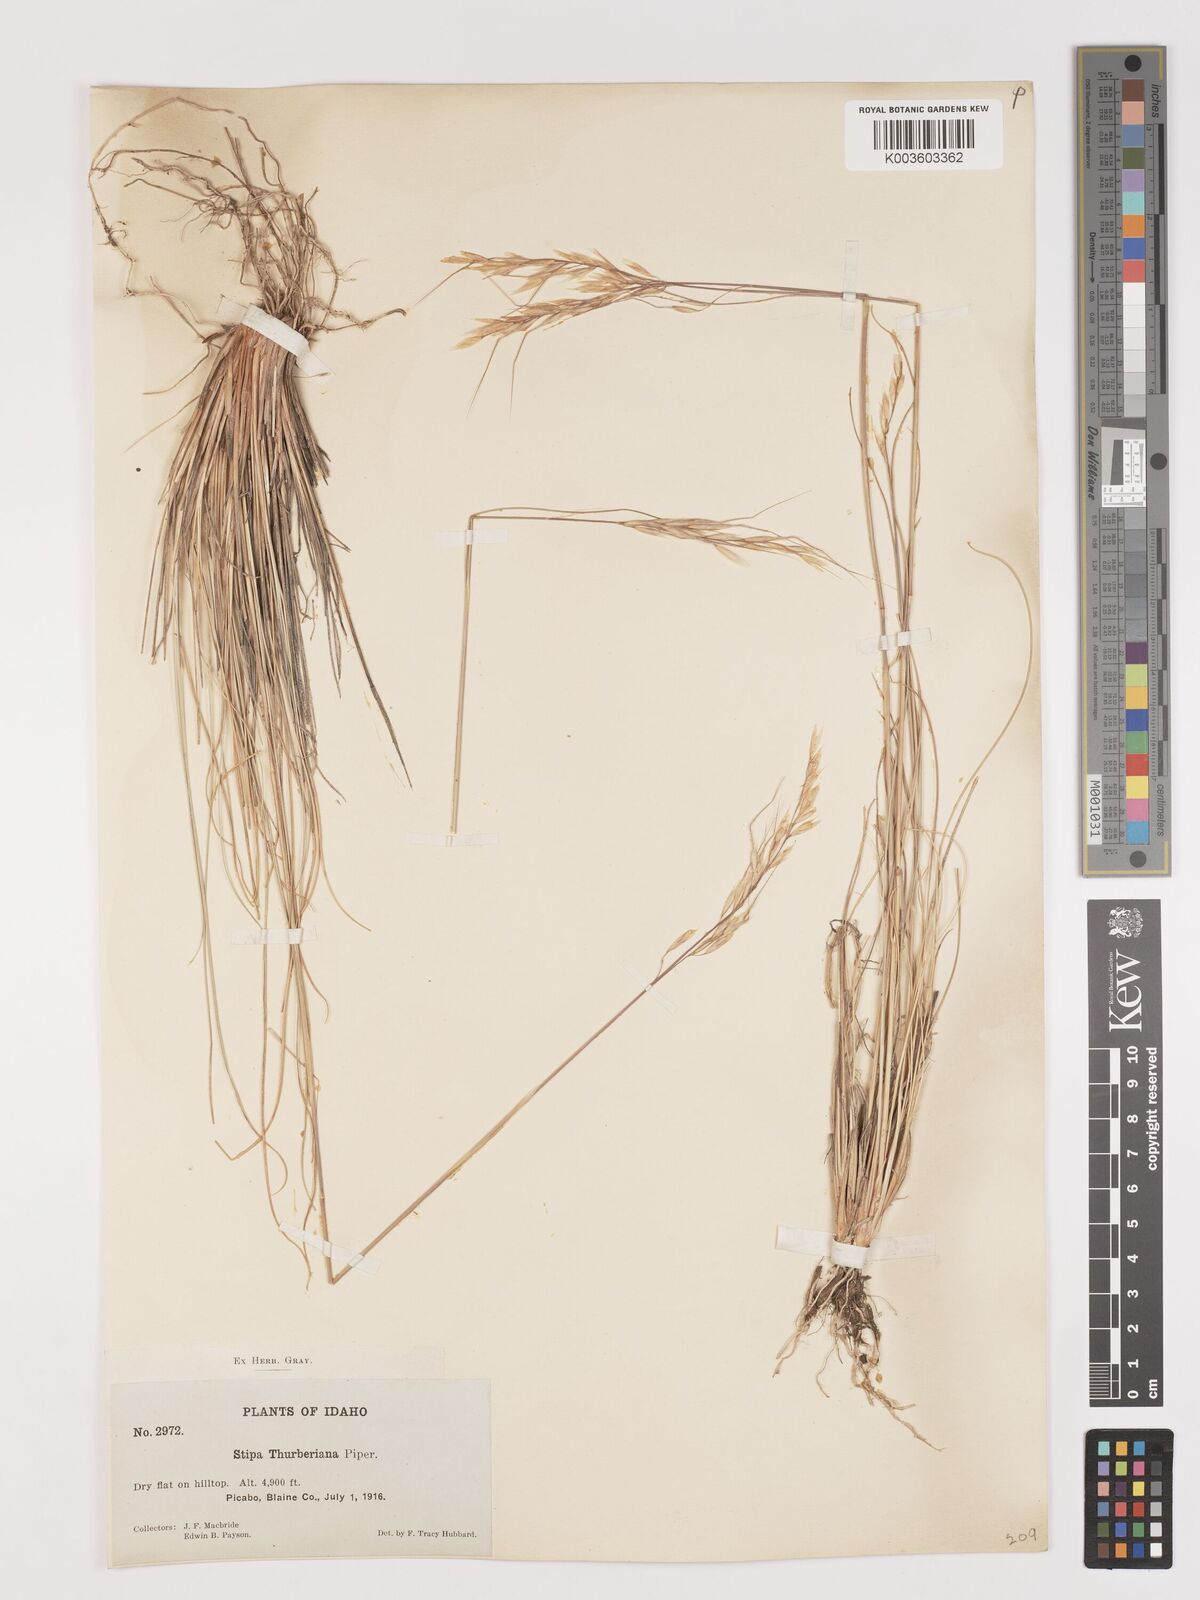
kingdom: Plantae
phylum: Tracheophyta
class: Liliopsida
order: Poales
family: Poaceae
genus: Eriocoma
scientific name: Eriocoma thurberiana
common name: Thurber's needlegrass
